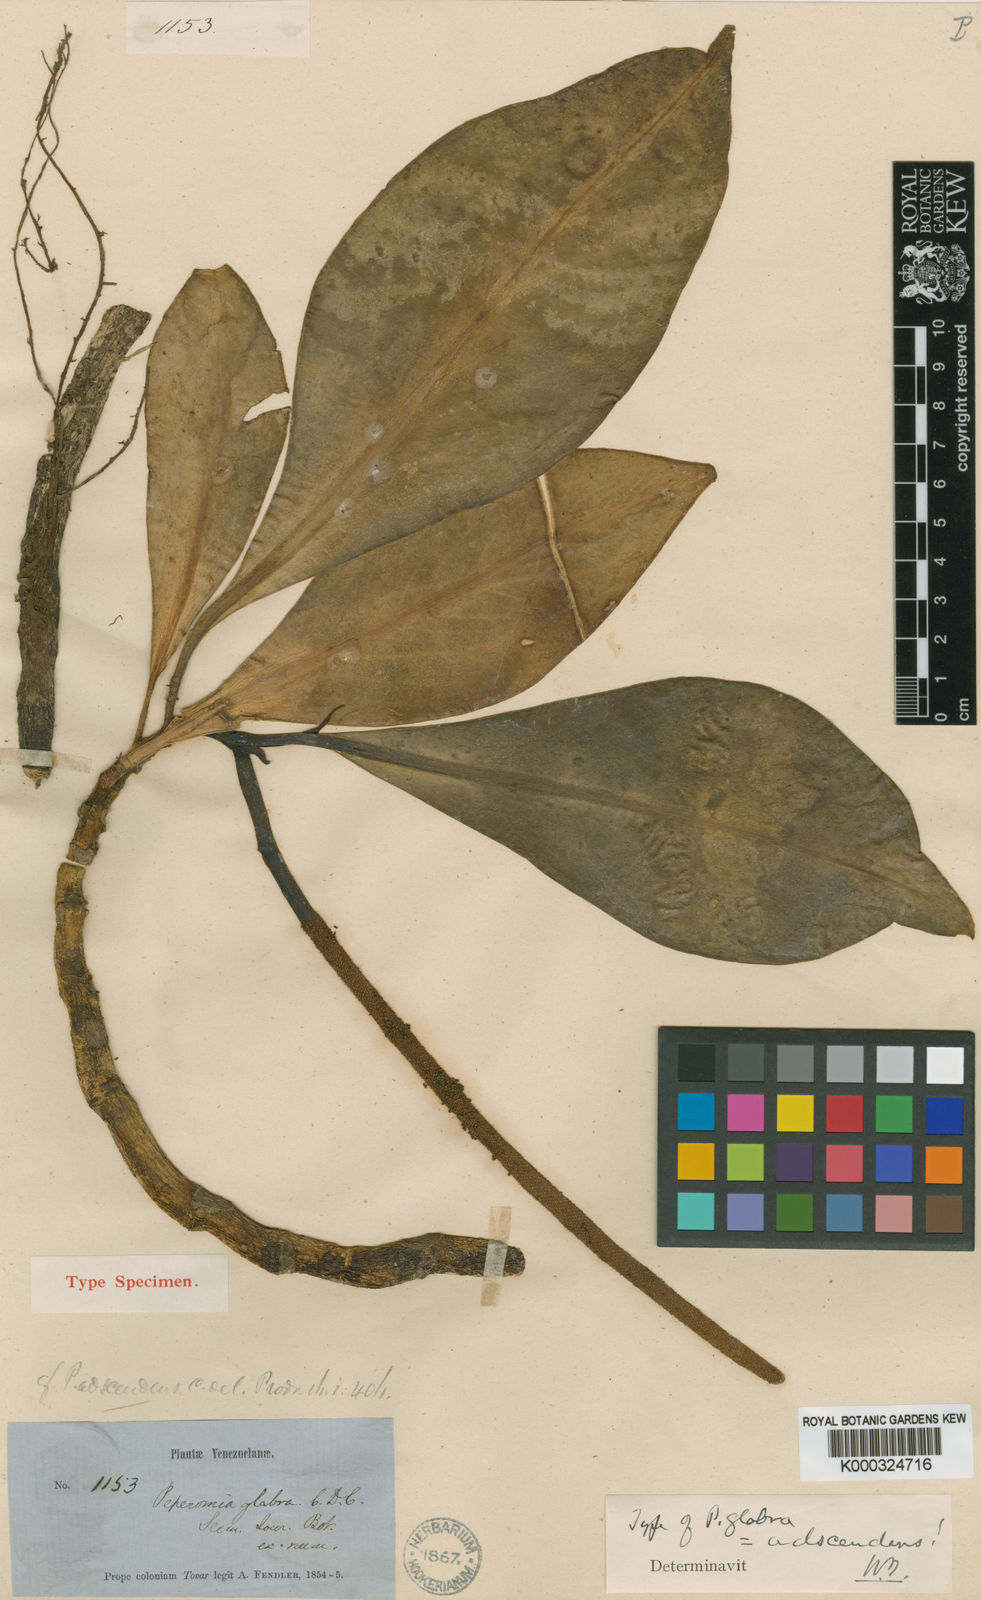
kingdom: Plantae
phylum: Tracheophyta
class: Magnoliopsida
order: Piperales
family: Piperaceae
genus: Peperomia
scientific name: Peperomia adscendens
